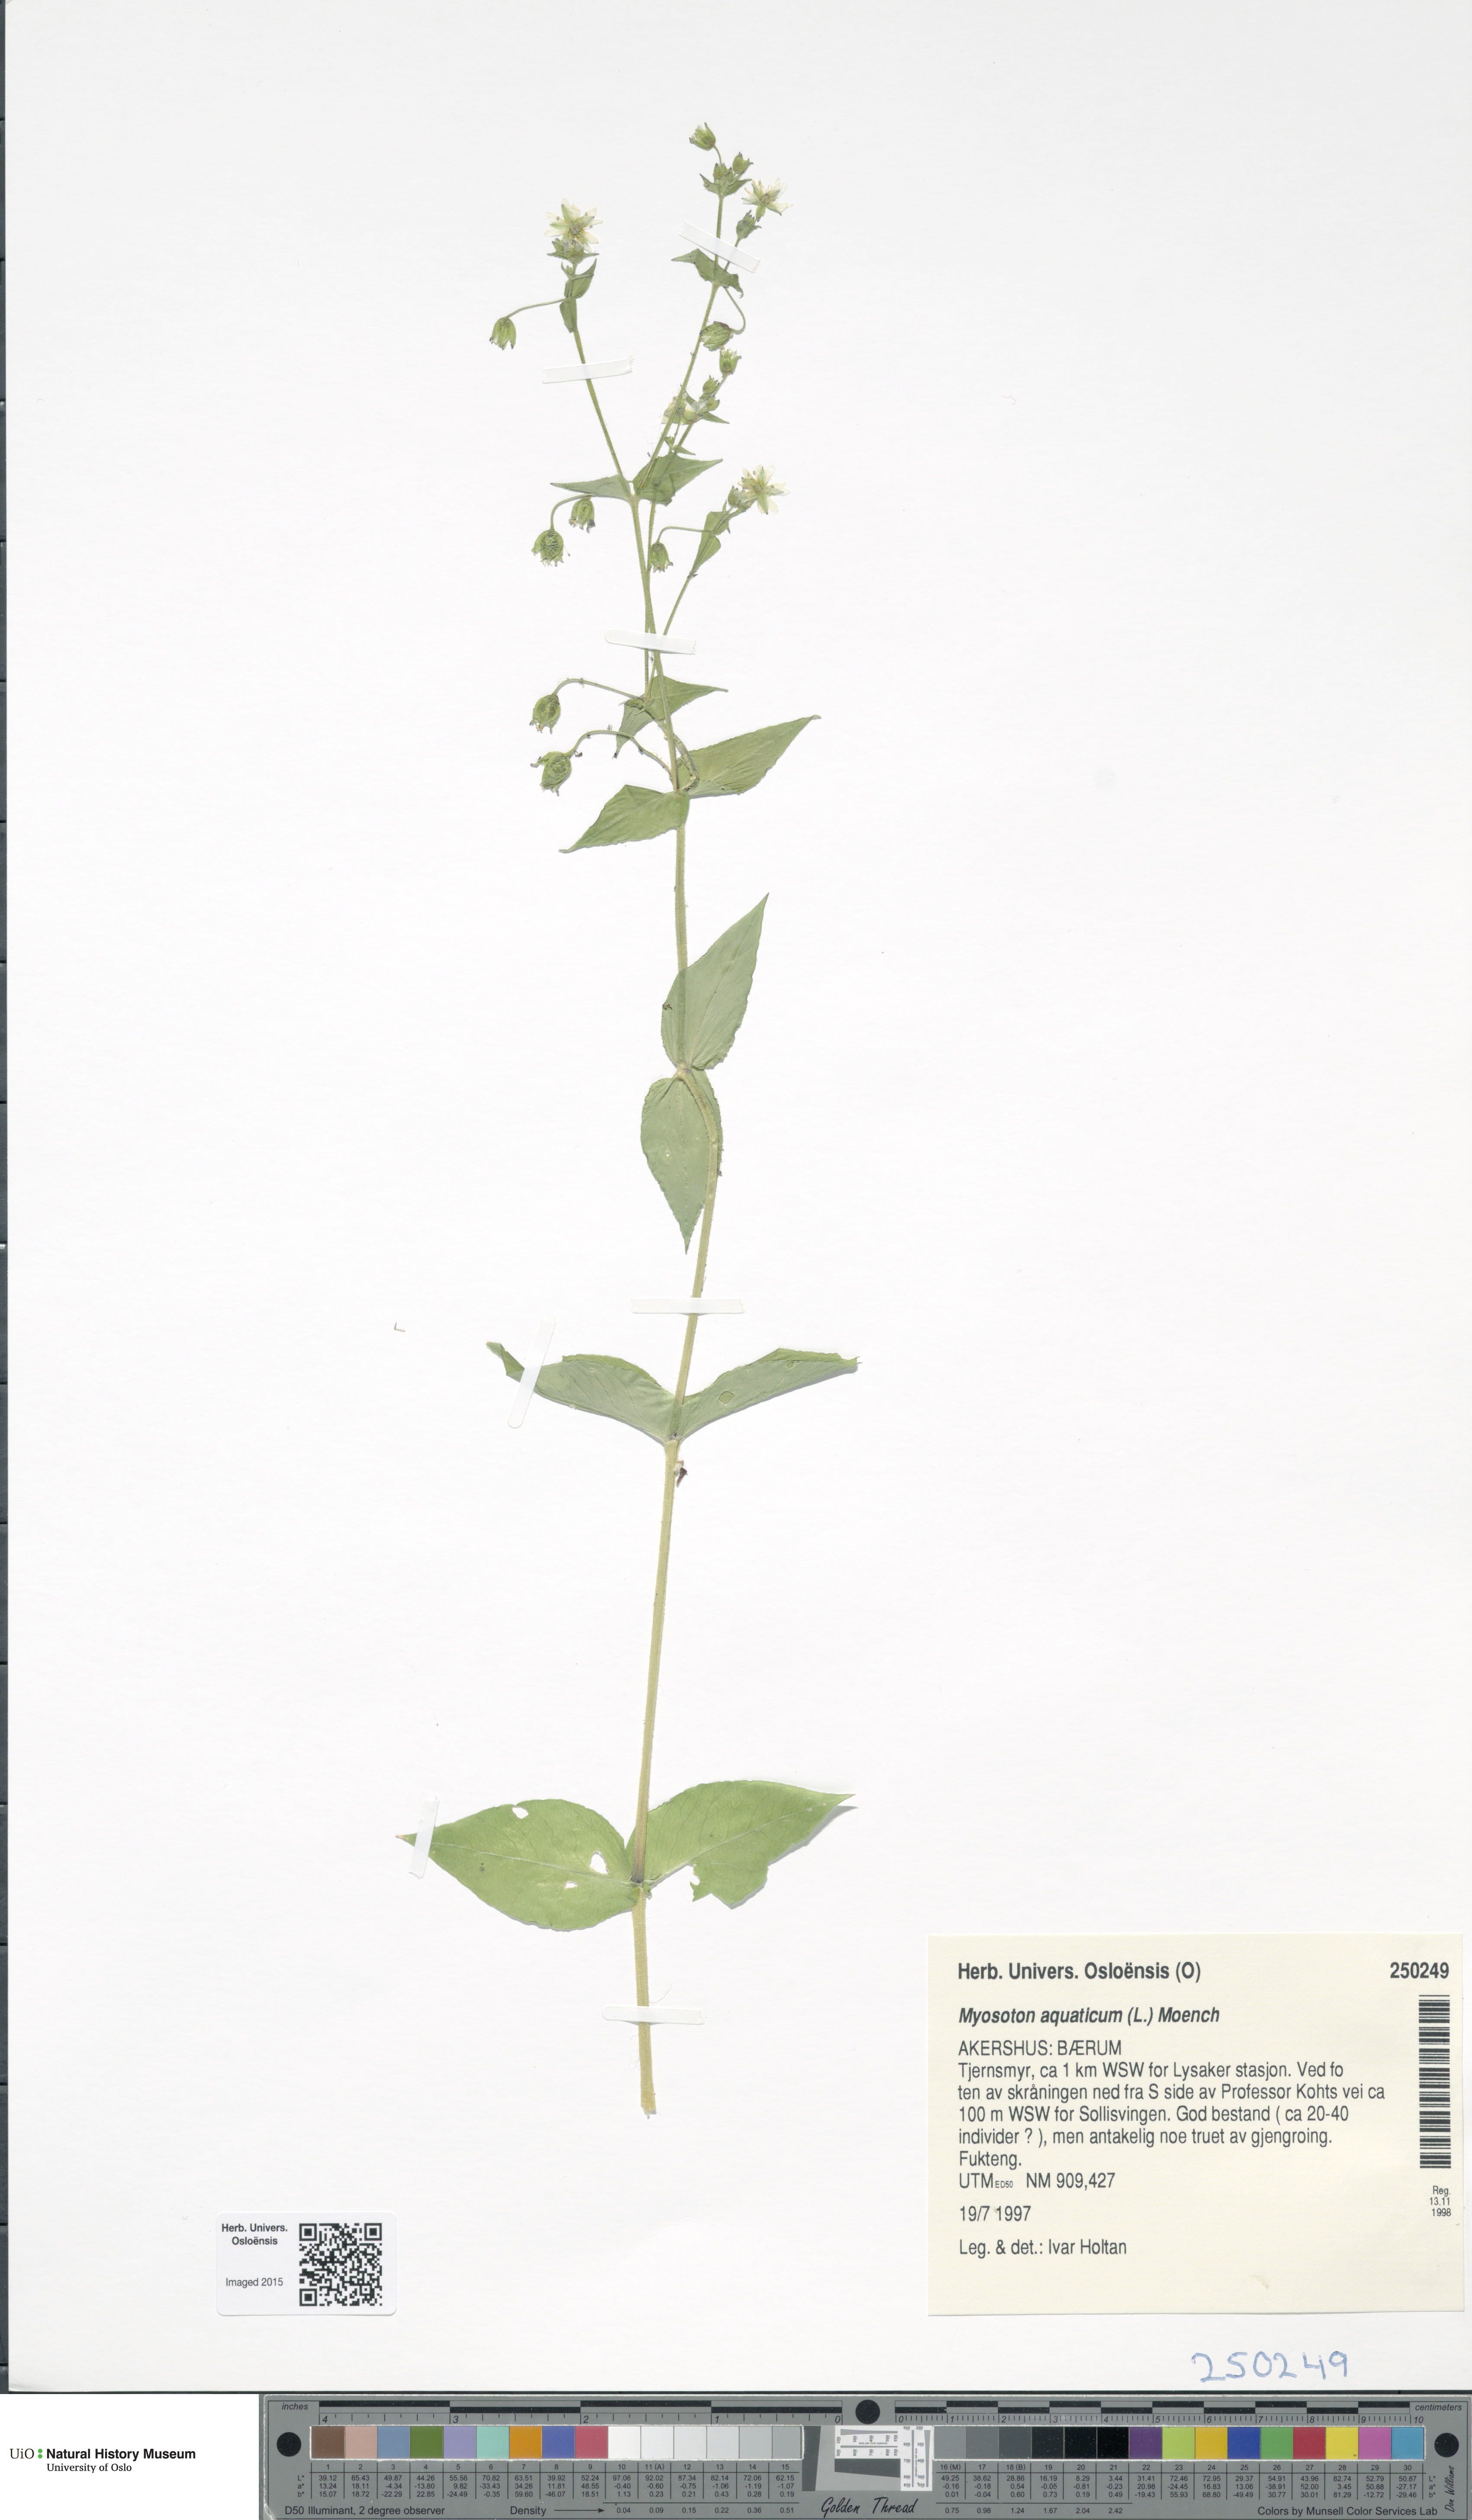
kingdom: Plantae
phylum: Tracheophyta
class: Magnoliopsida
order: Caryophyllales
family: Caryophyllaceae
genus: Stellaria
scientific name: Stellaria aquatica
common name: Water chickweed
